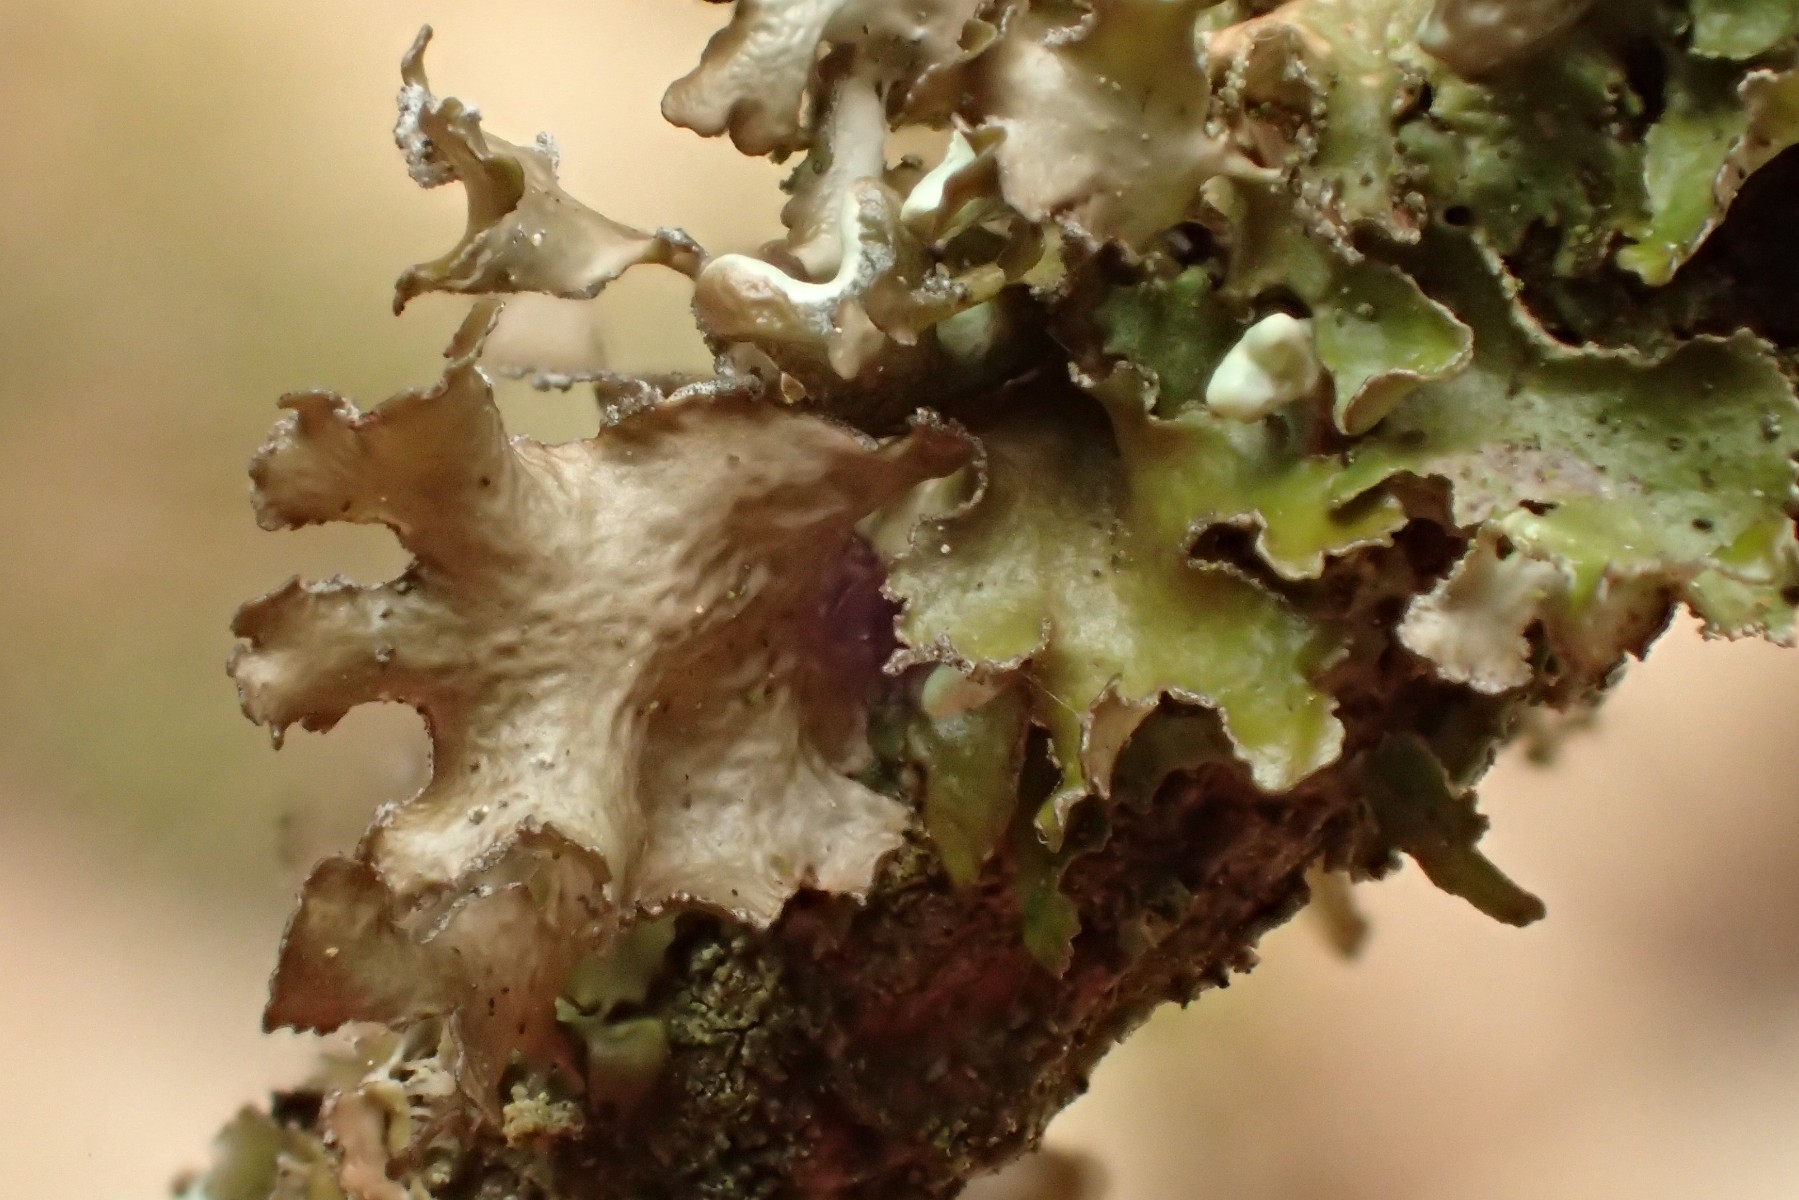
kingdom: Fungi
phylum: Ascomycota
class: Lecanoromycetes
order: Lecanorales
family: Parmeliaceae
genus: Nephromopsis
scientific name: Nephromopsis chlorophylla
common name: olivenbrun kruslav
